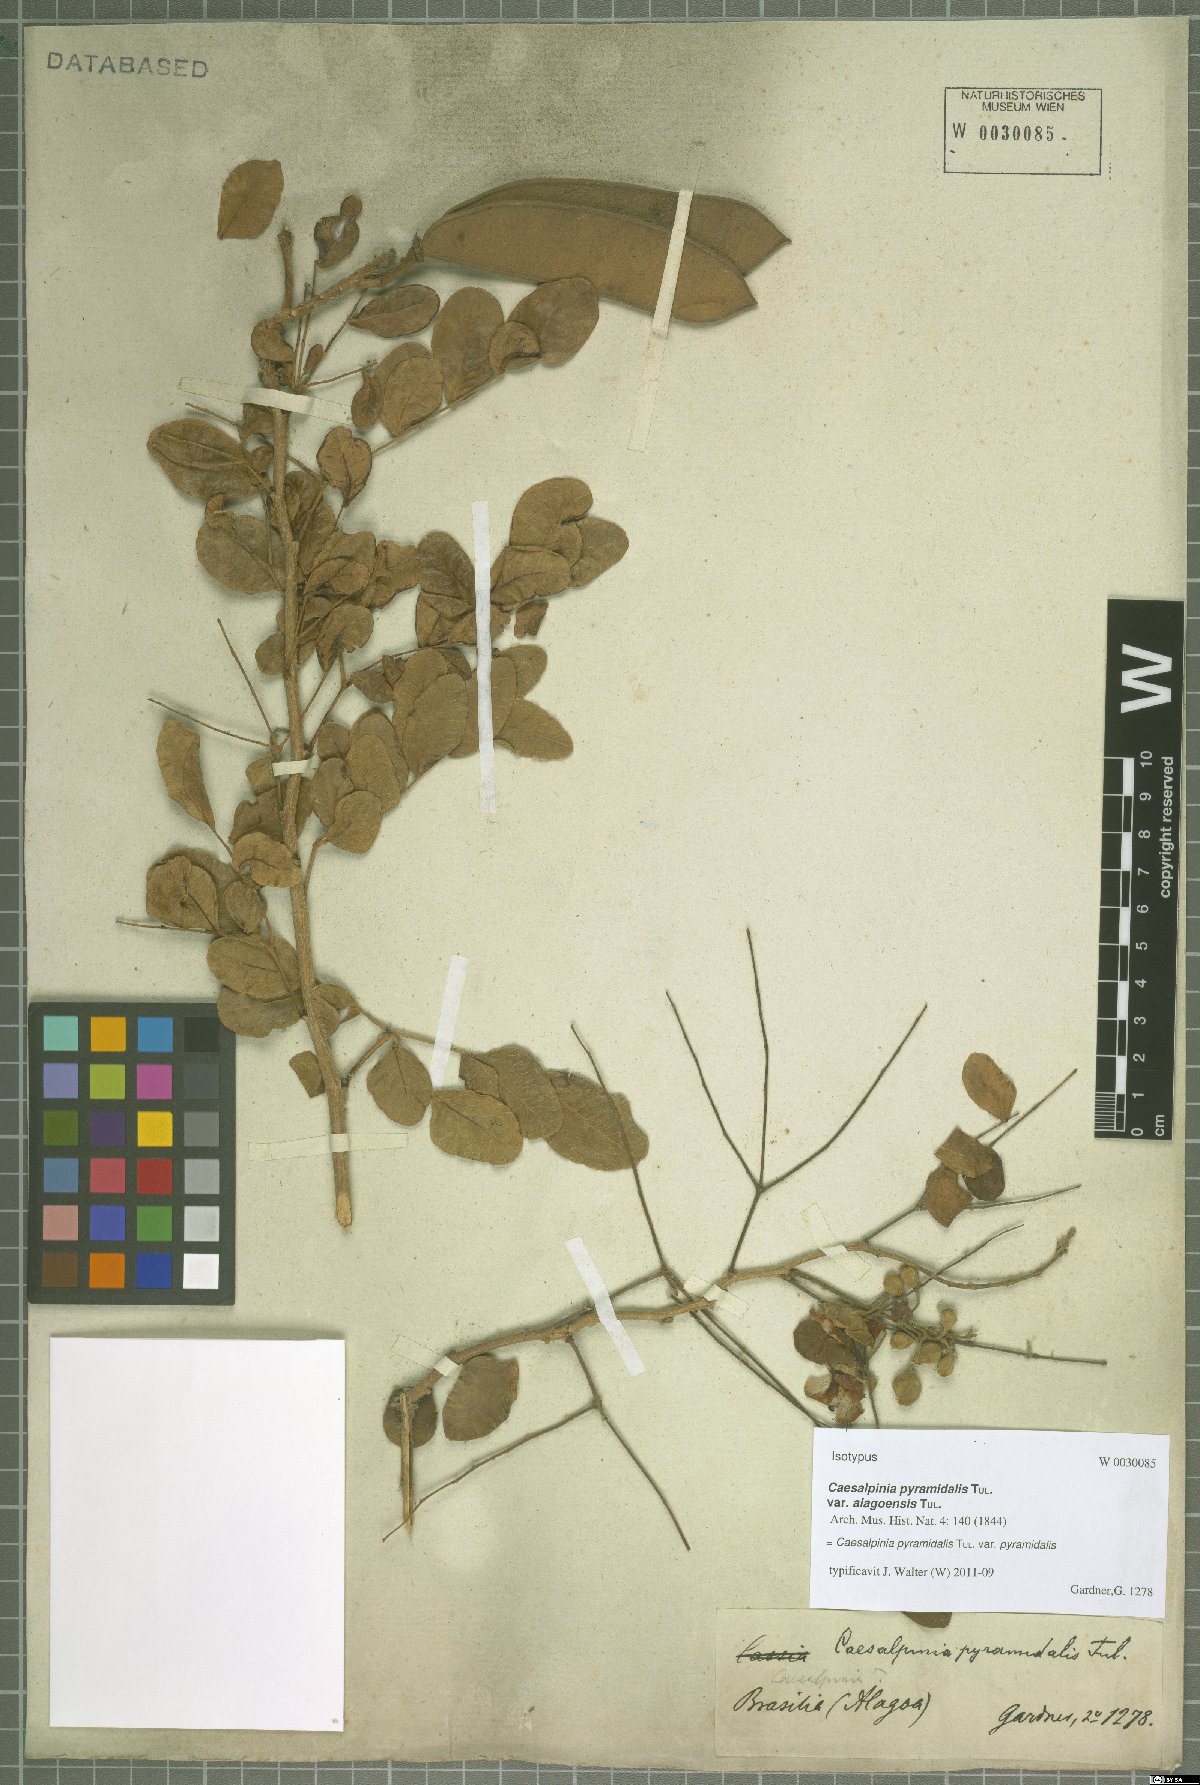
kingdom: Plantae
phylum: Tracheophyta
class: Magnoliopsida
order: Fabales
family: Fabaceae
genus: Cenostigma
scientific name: Cenostigma pyramidale
